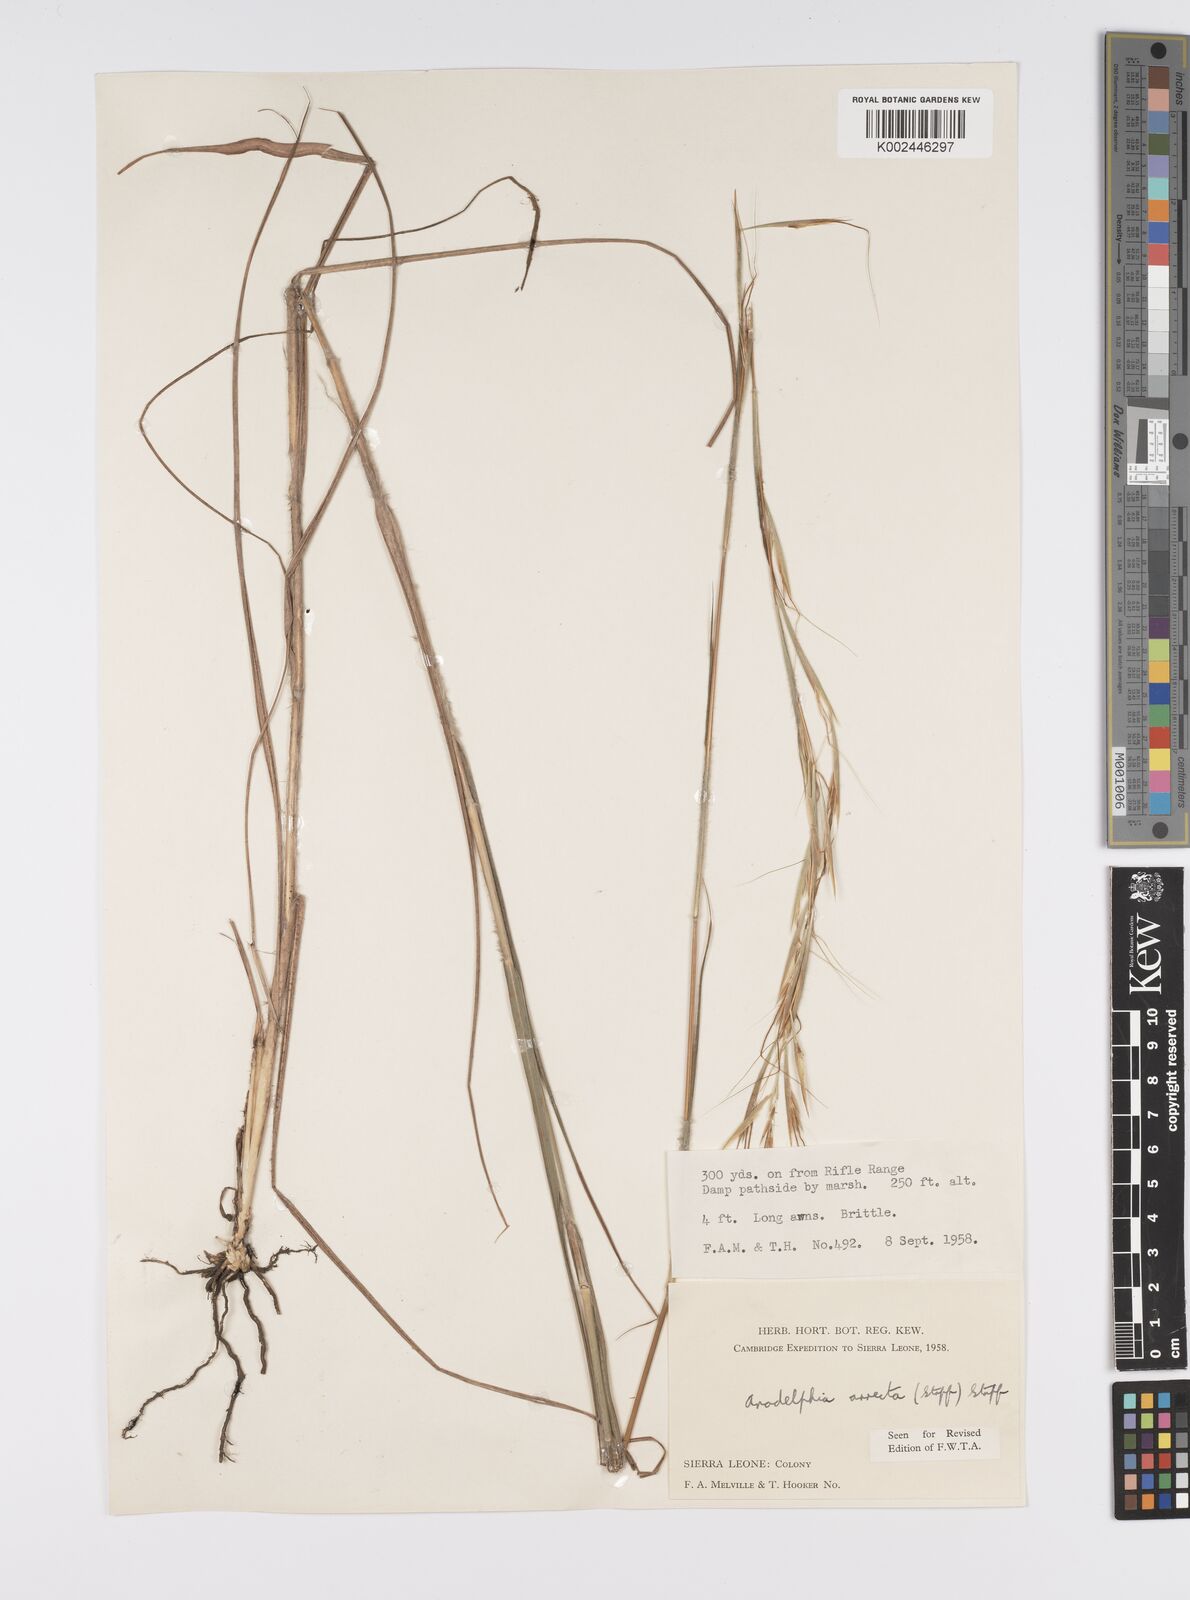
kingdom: Plantae
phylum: Tracheophyta
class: Liliopsida
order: Poales
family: Poaceae
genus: Anadelphia
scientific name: Anadelphia afzeliana
